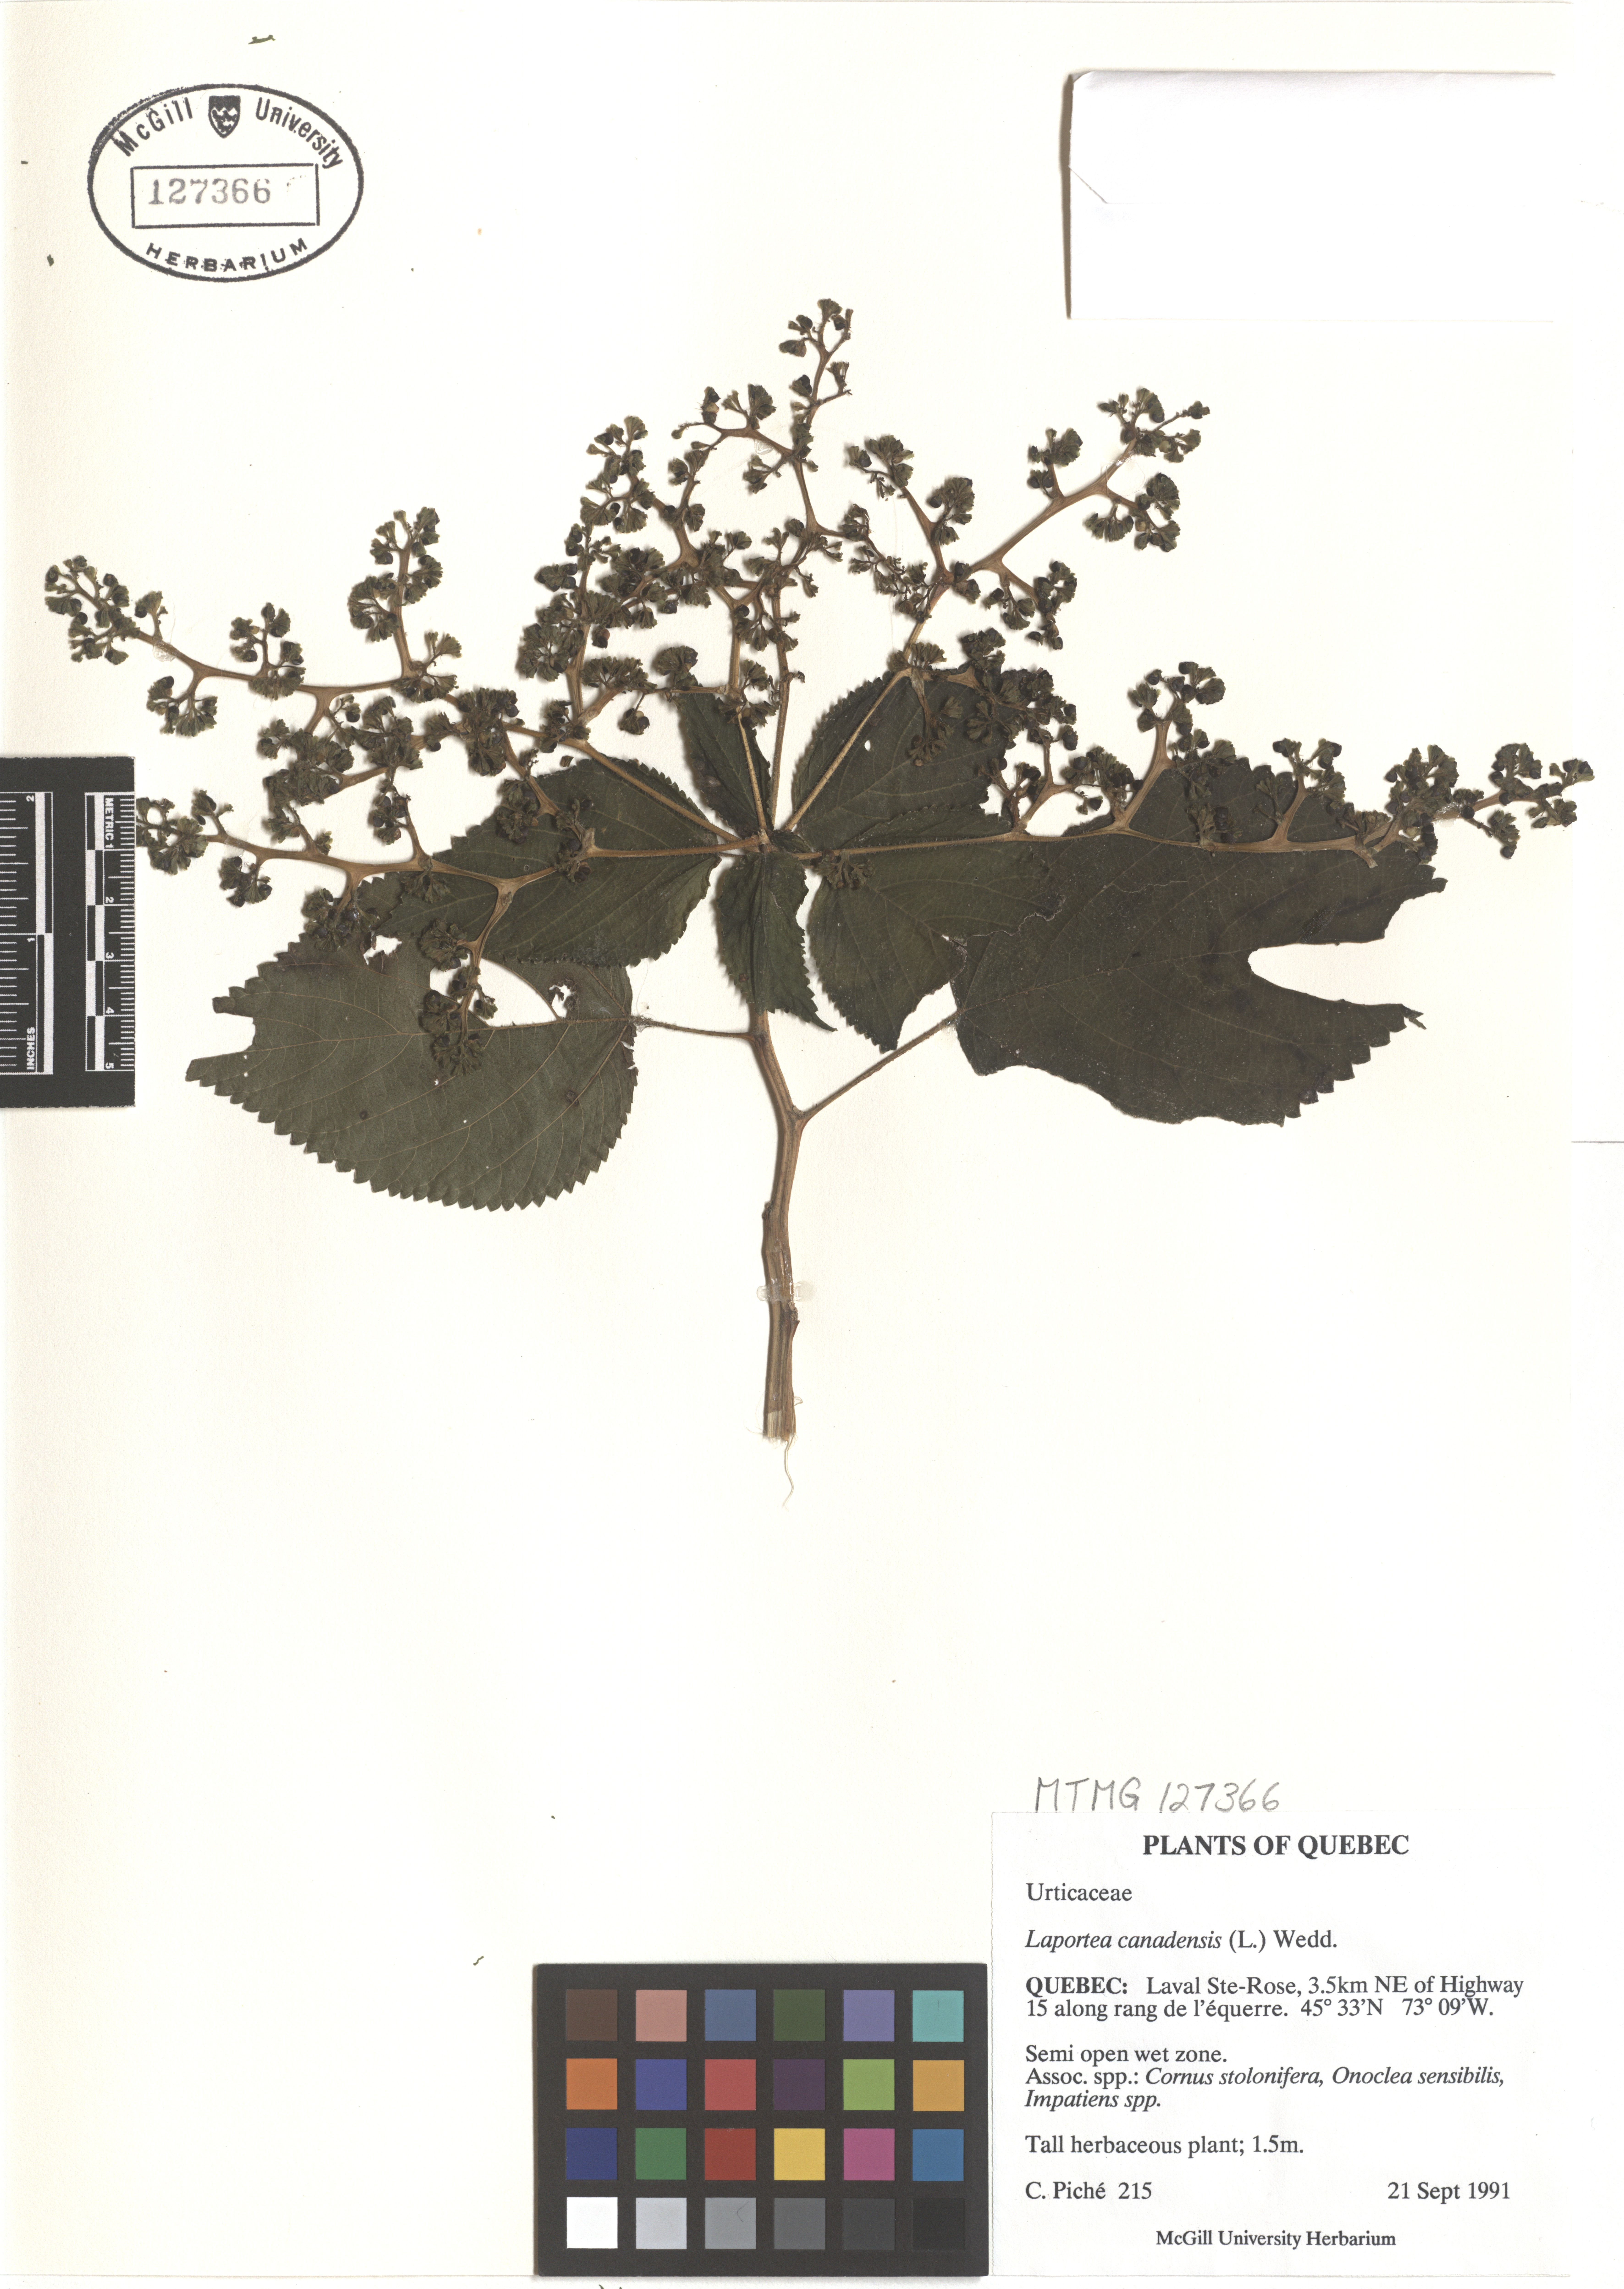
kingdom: Plantae
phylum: Tracheophyta
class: Magnoliopsida
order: Rosales
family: Urticaceae
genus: Laportea
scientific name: Laportea canadensis
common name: Canada nettle
